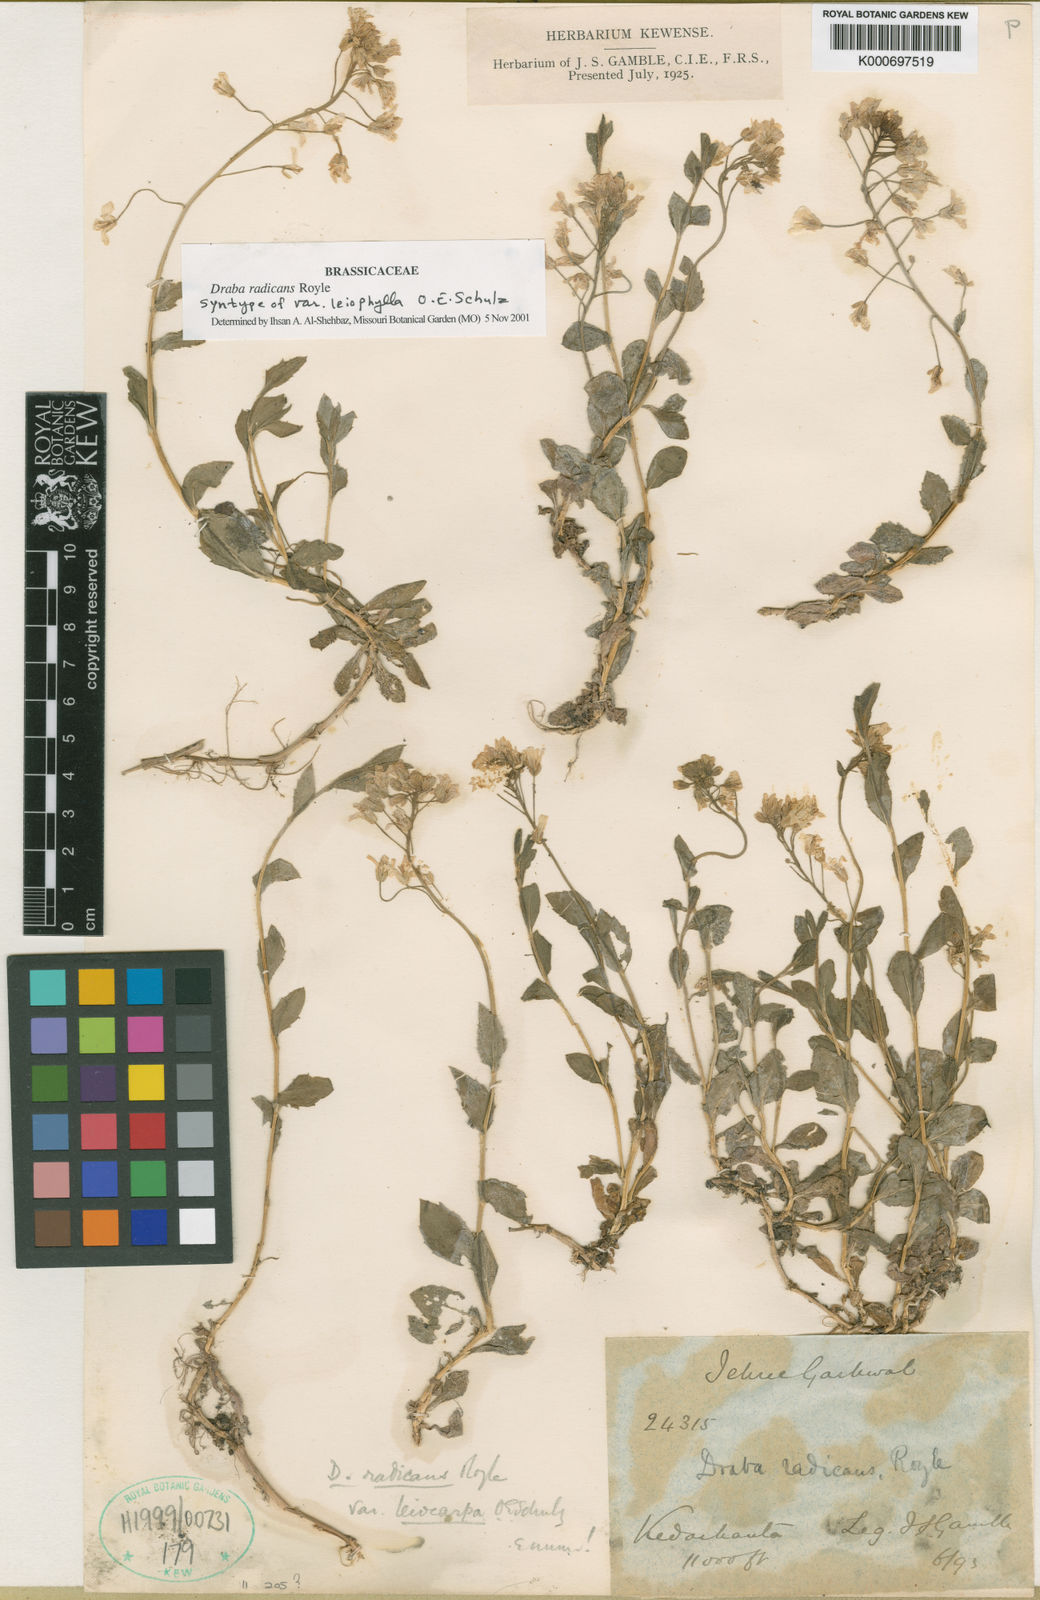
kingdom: Plantae
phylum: Tracheophyta
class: Magnoliopsida
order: Brassicales
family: Brassicaceae
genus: Draba
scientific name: Draba radicans
